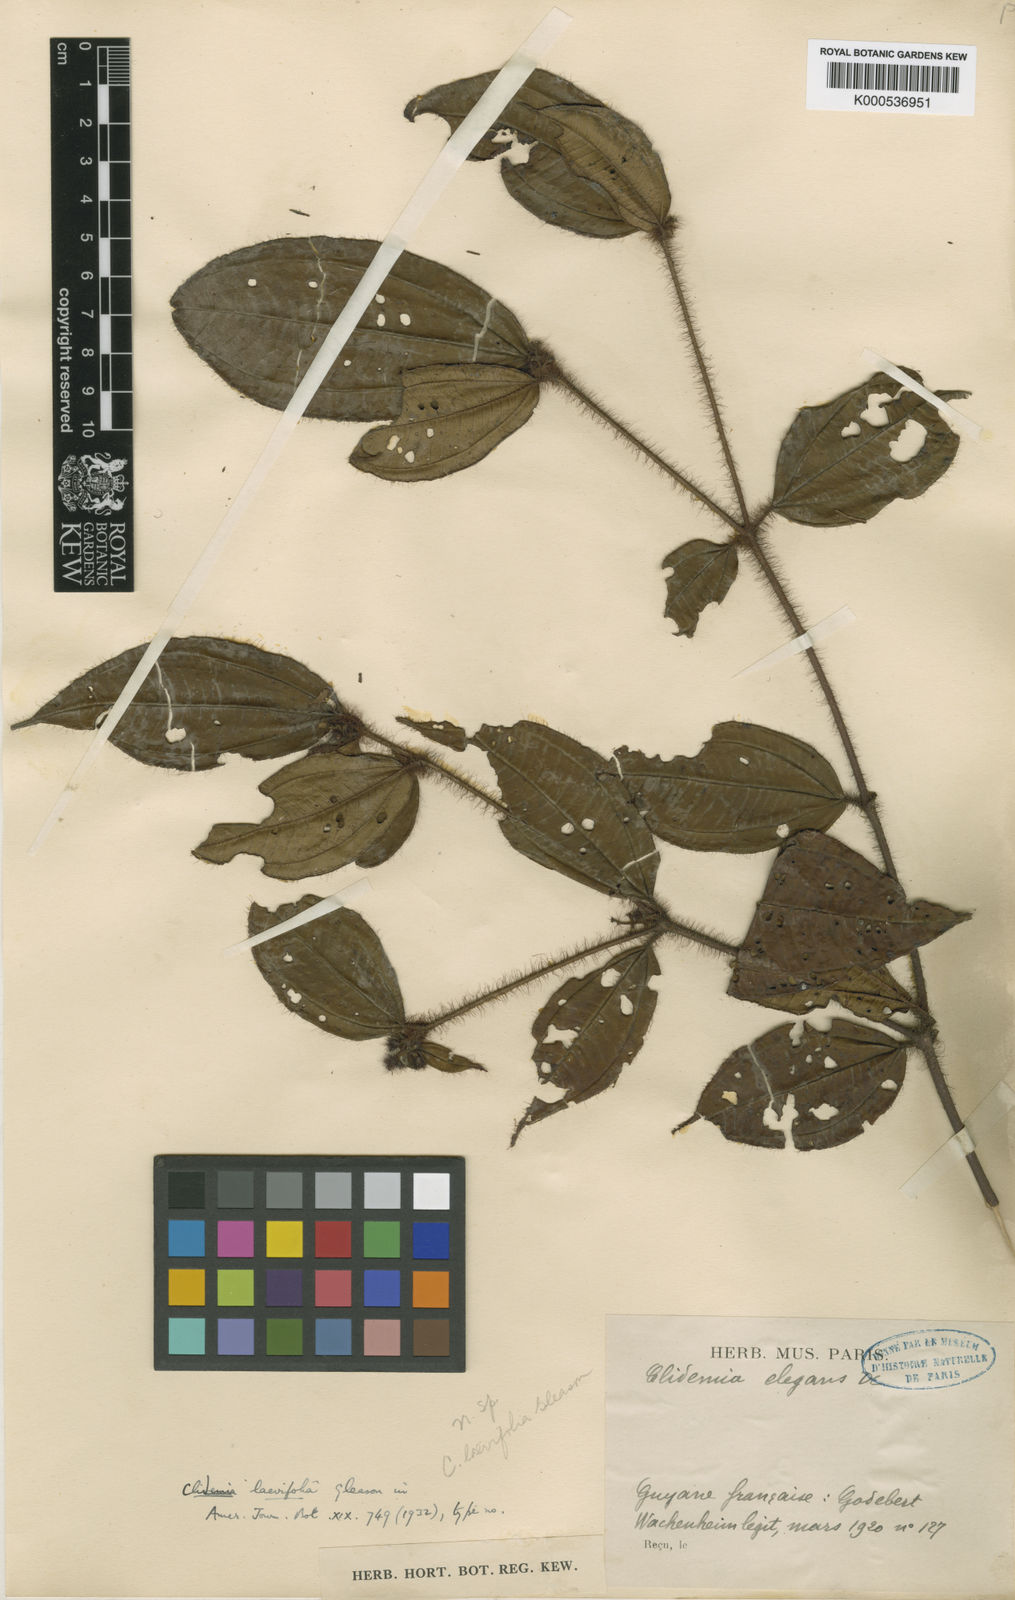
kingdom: Plantae
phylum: Tracheophyta
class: Magnoliopsida
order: Myrtales
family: Melastomataceae
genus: Miconia
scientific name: Miconia laevifolia
